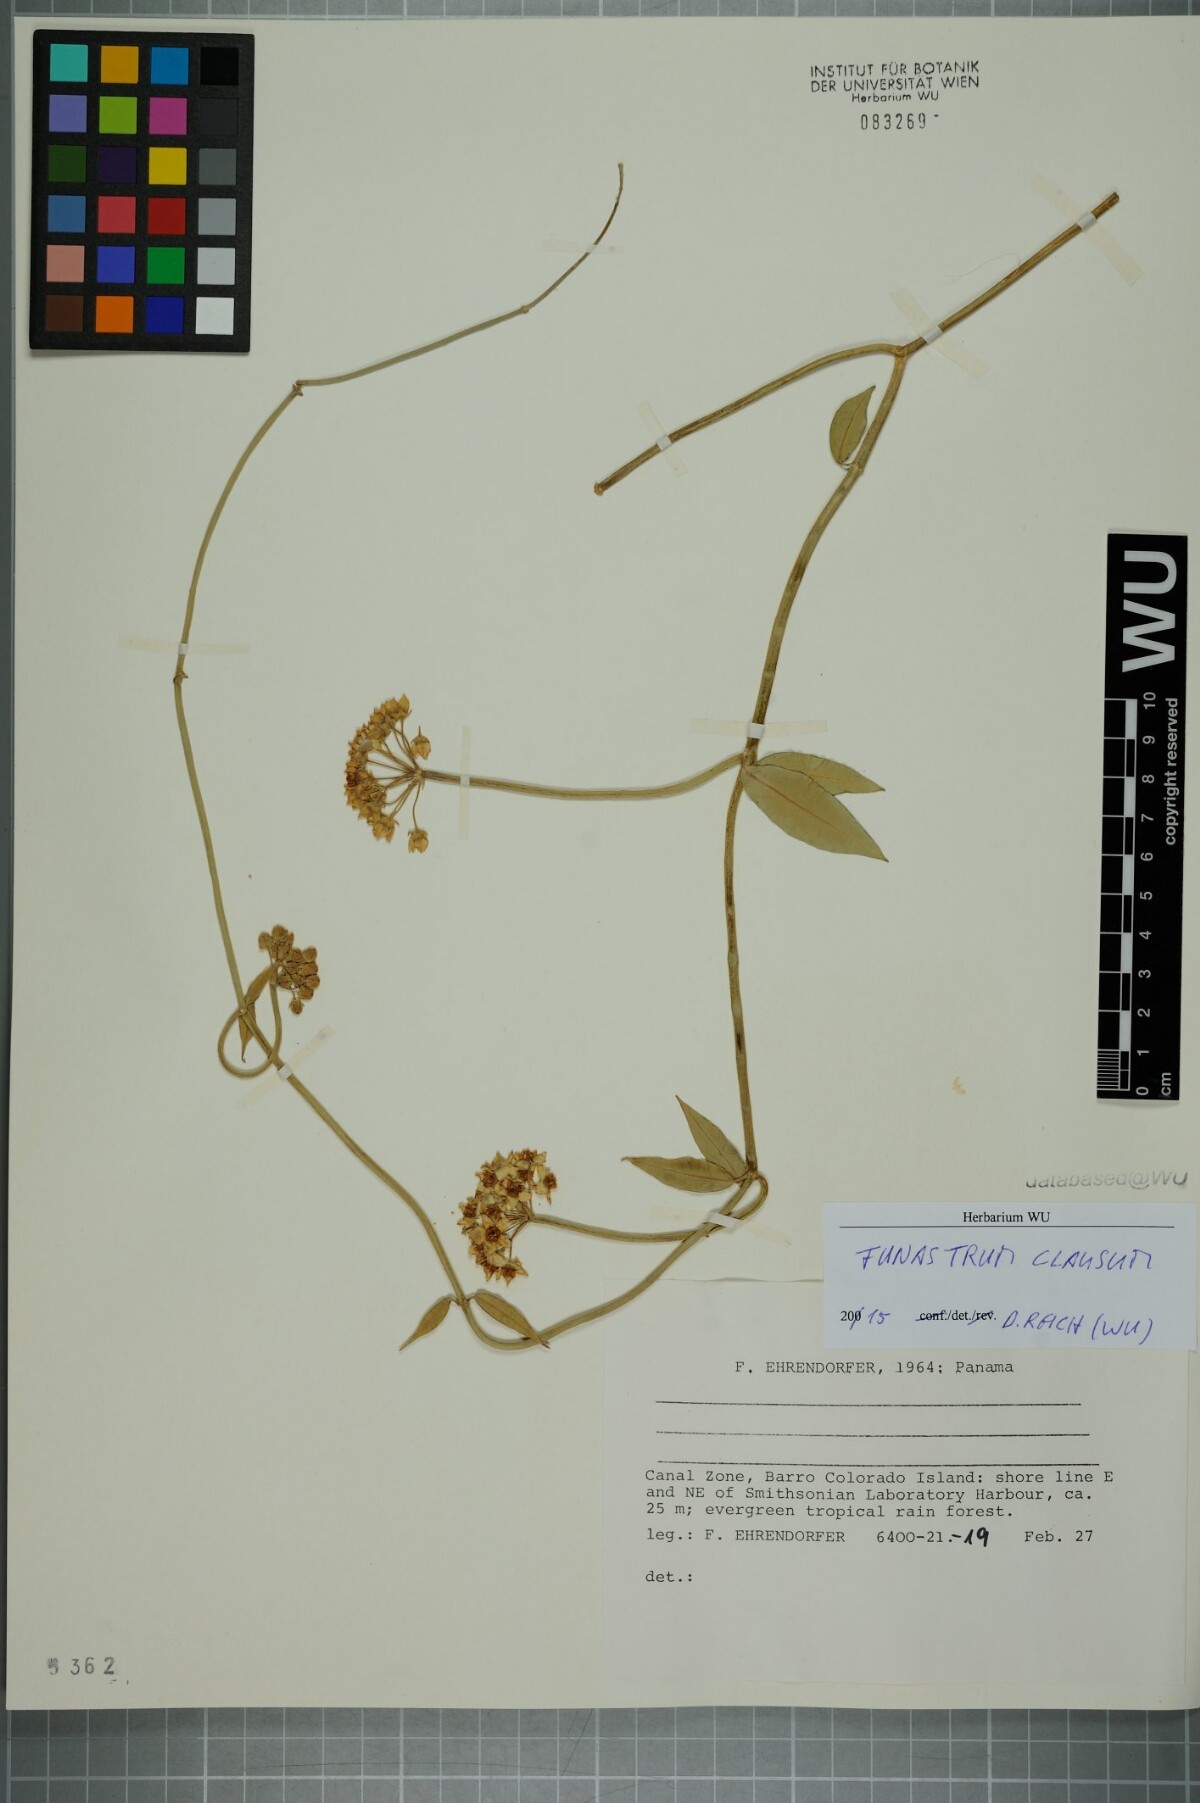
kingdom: Plantae
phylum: Tracheophyta
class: Magnoliopsida
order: Gentianales
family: Apocynaceae
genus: Funastrum
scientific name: Funastrum clausum
